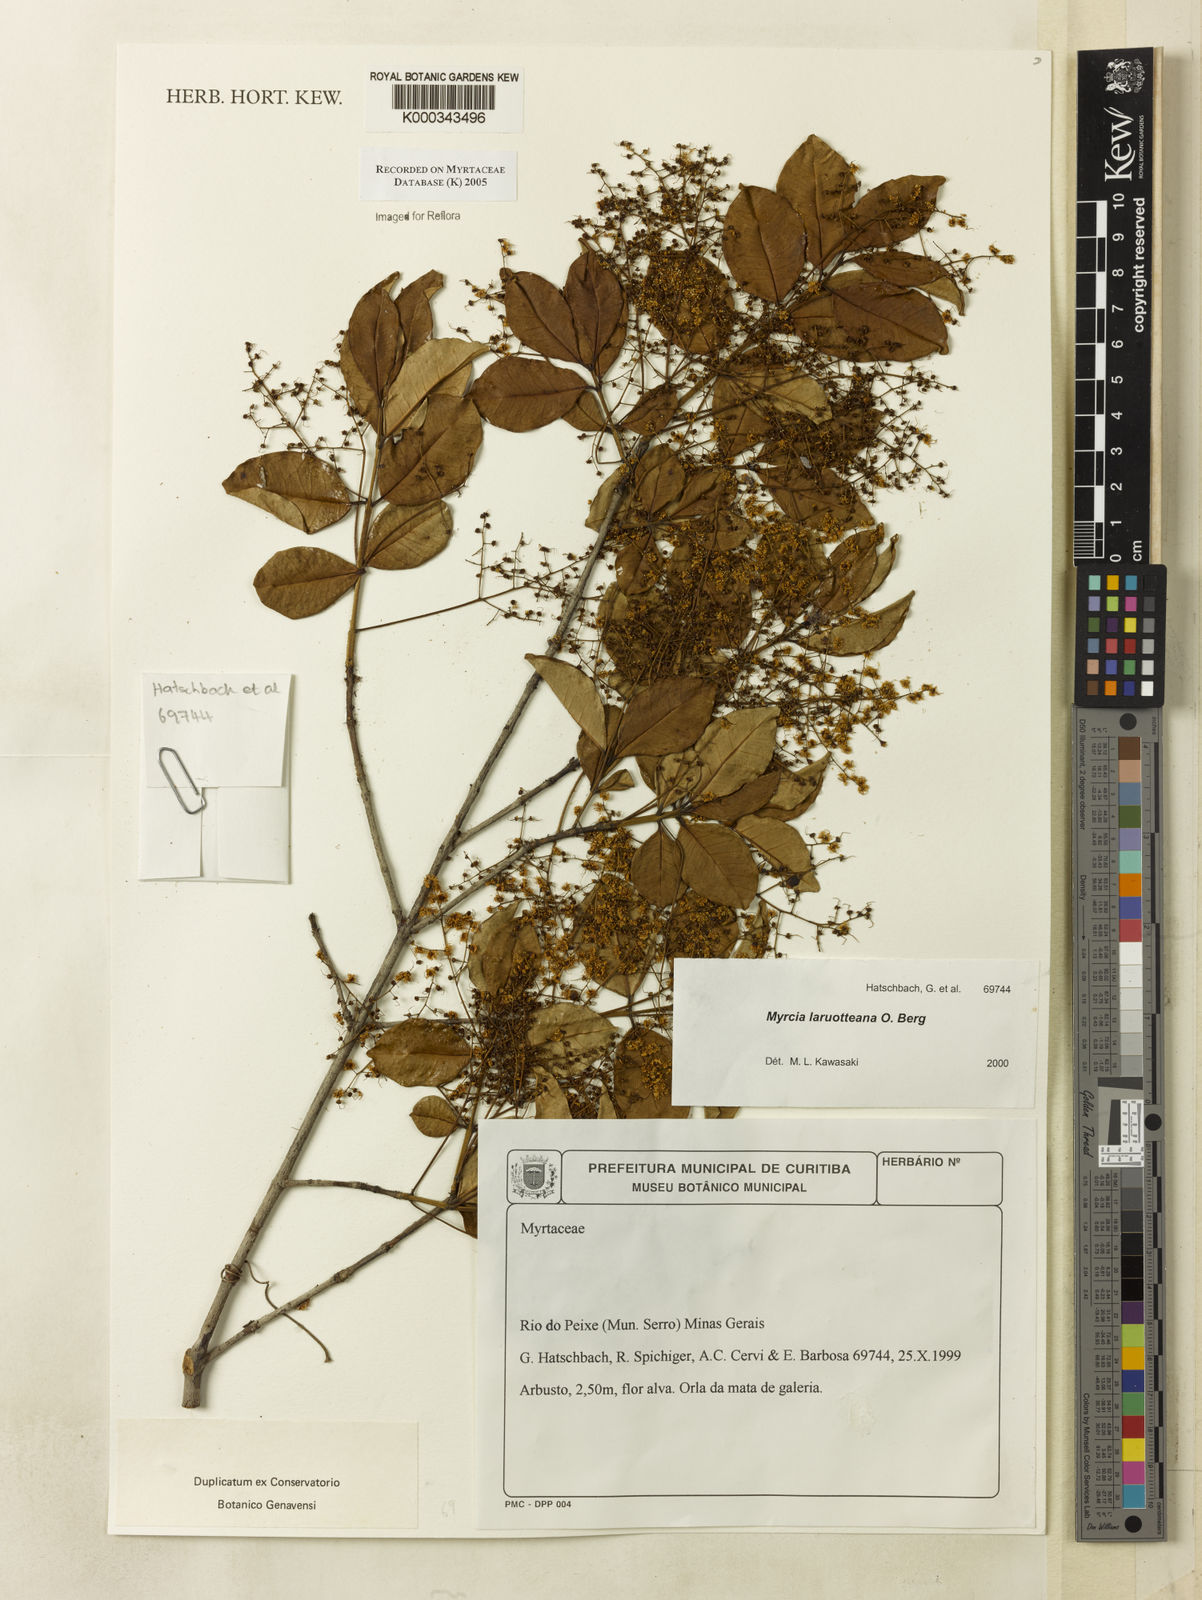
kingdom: Plantae
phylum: Tracheophyta
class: Magnoliopsida
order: Myrtales
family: Myrtaceae
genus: Myrcia
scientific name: Myrcia laruotteana
